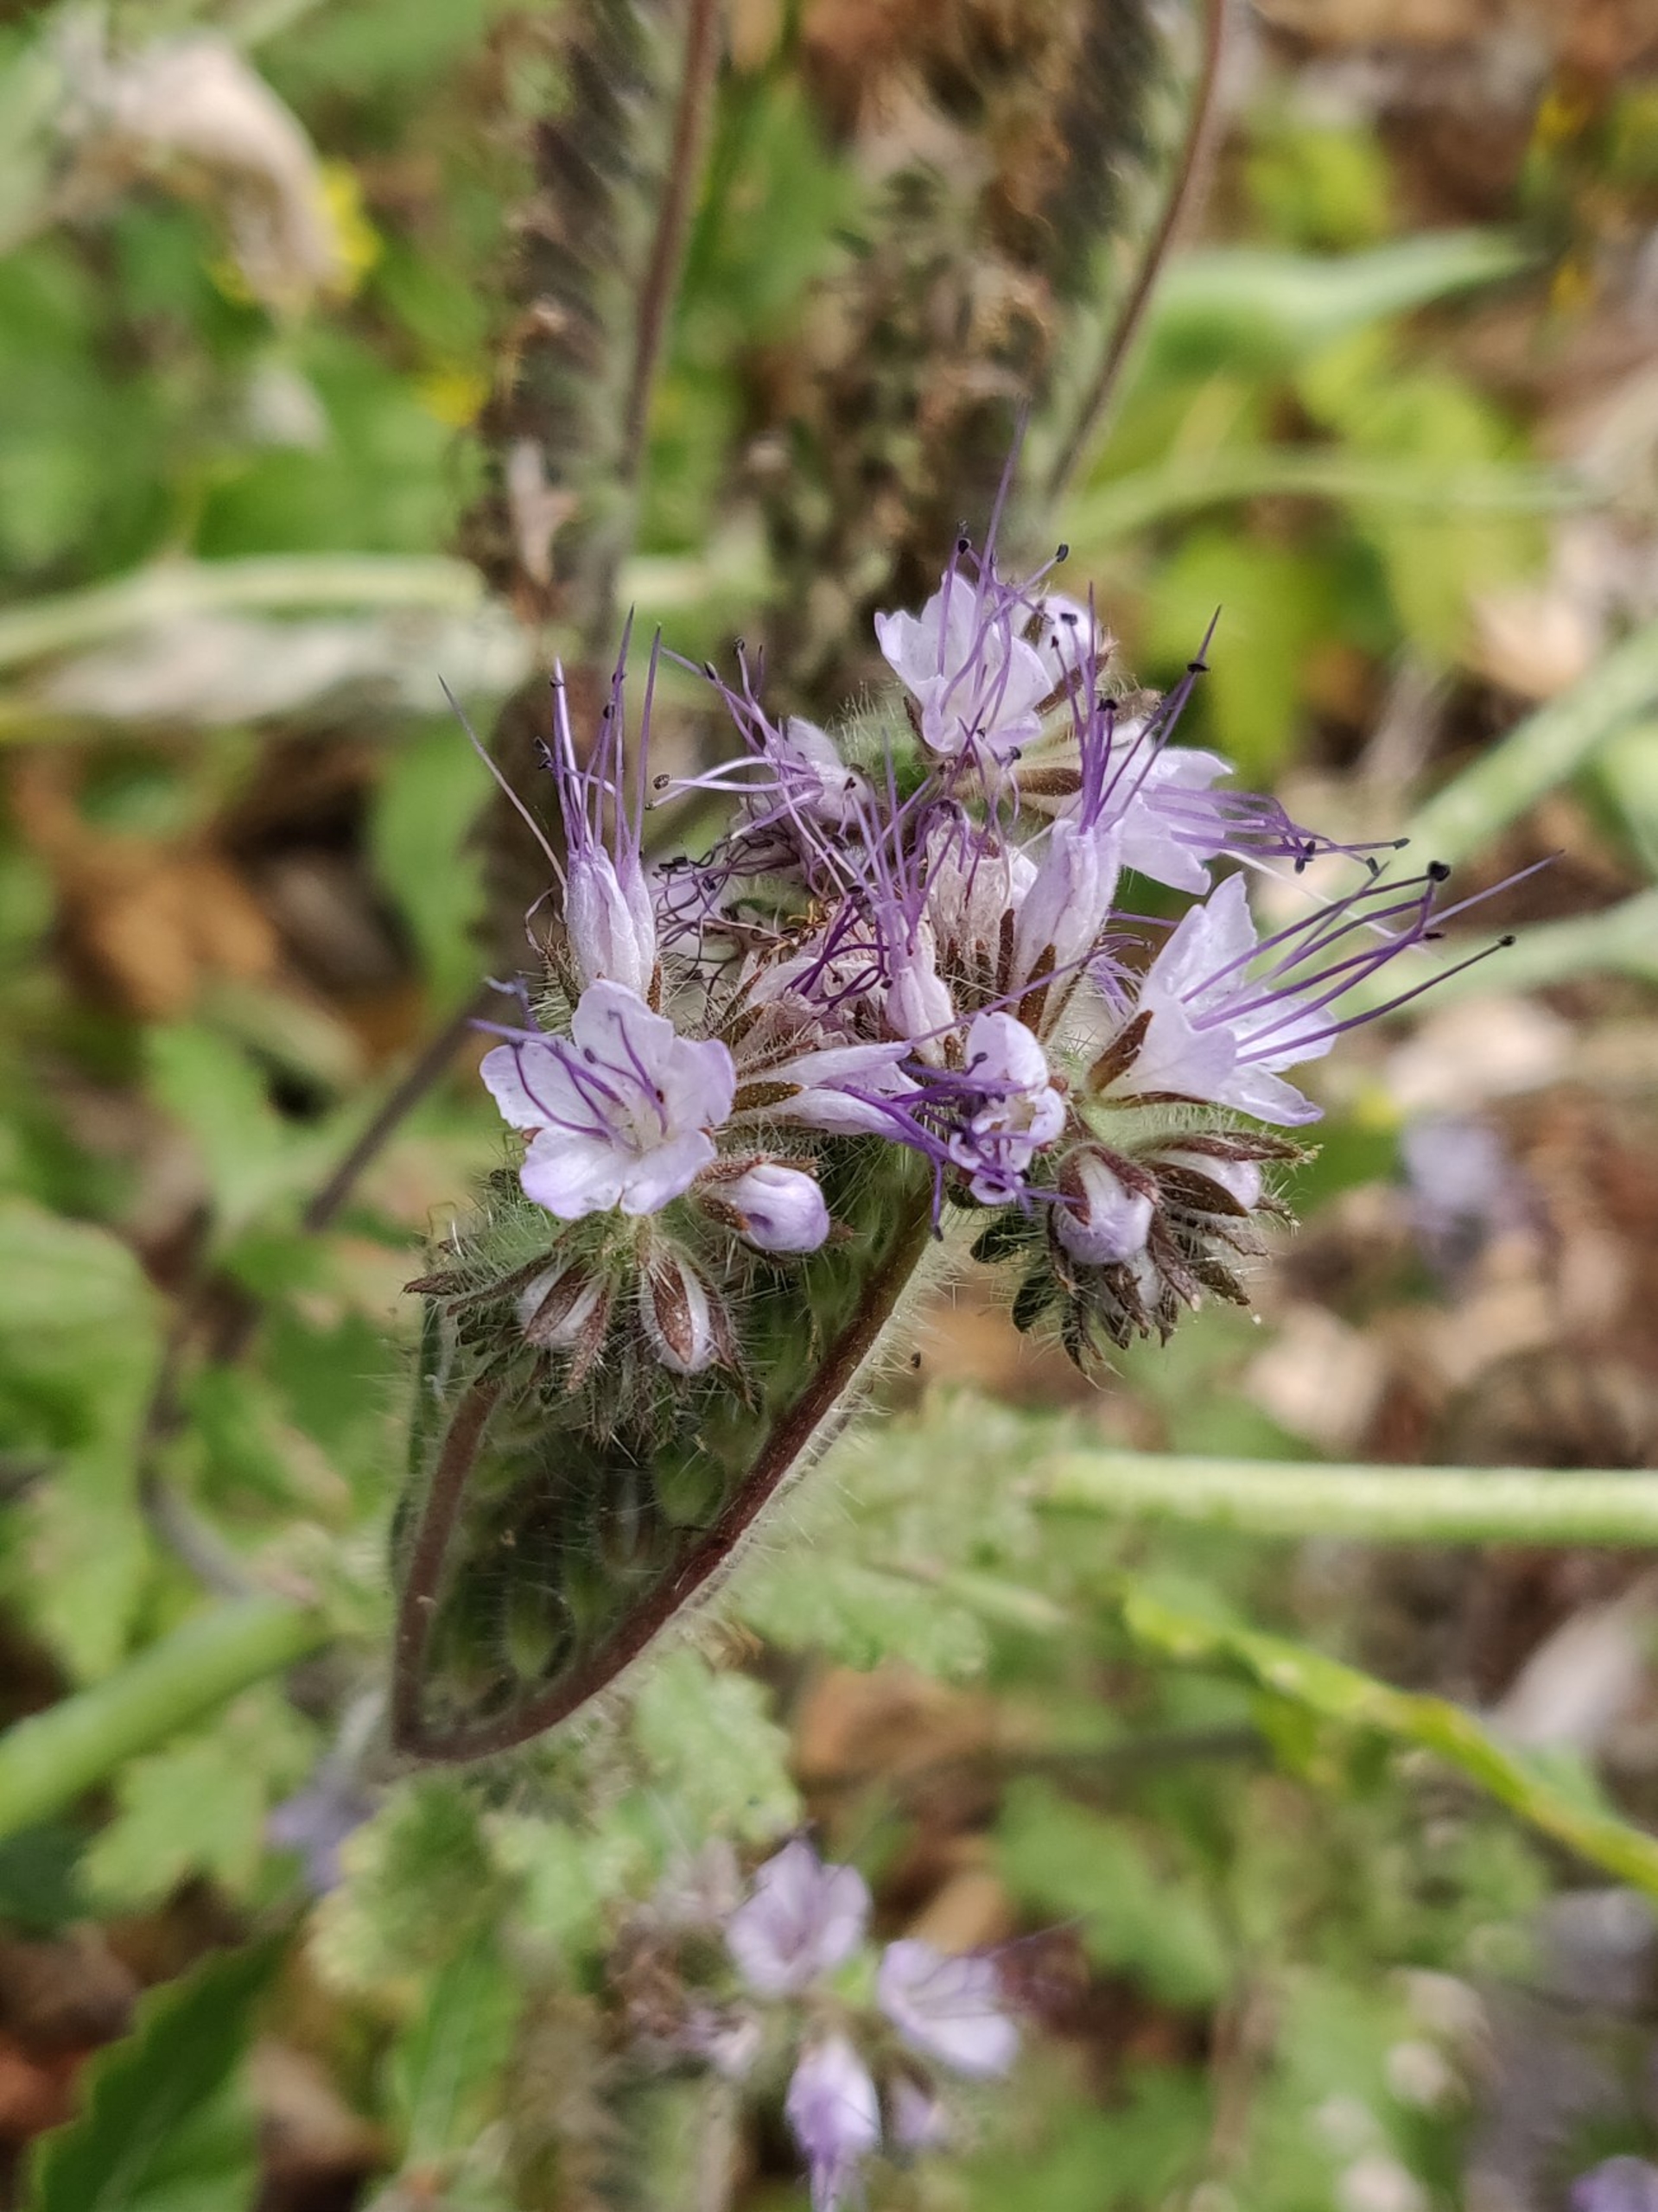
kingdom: Plantae
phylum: Tracheophyta
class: Magnoliopsida
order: Boraginales
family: Hydrophyllaceae
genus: Phacelia
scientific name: Phacelia tanacetifolia
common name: Honningurt
